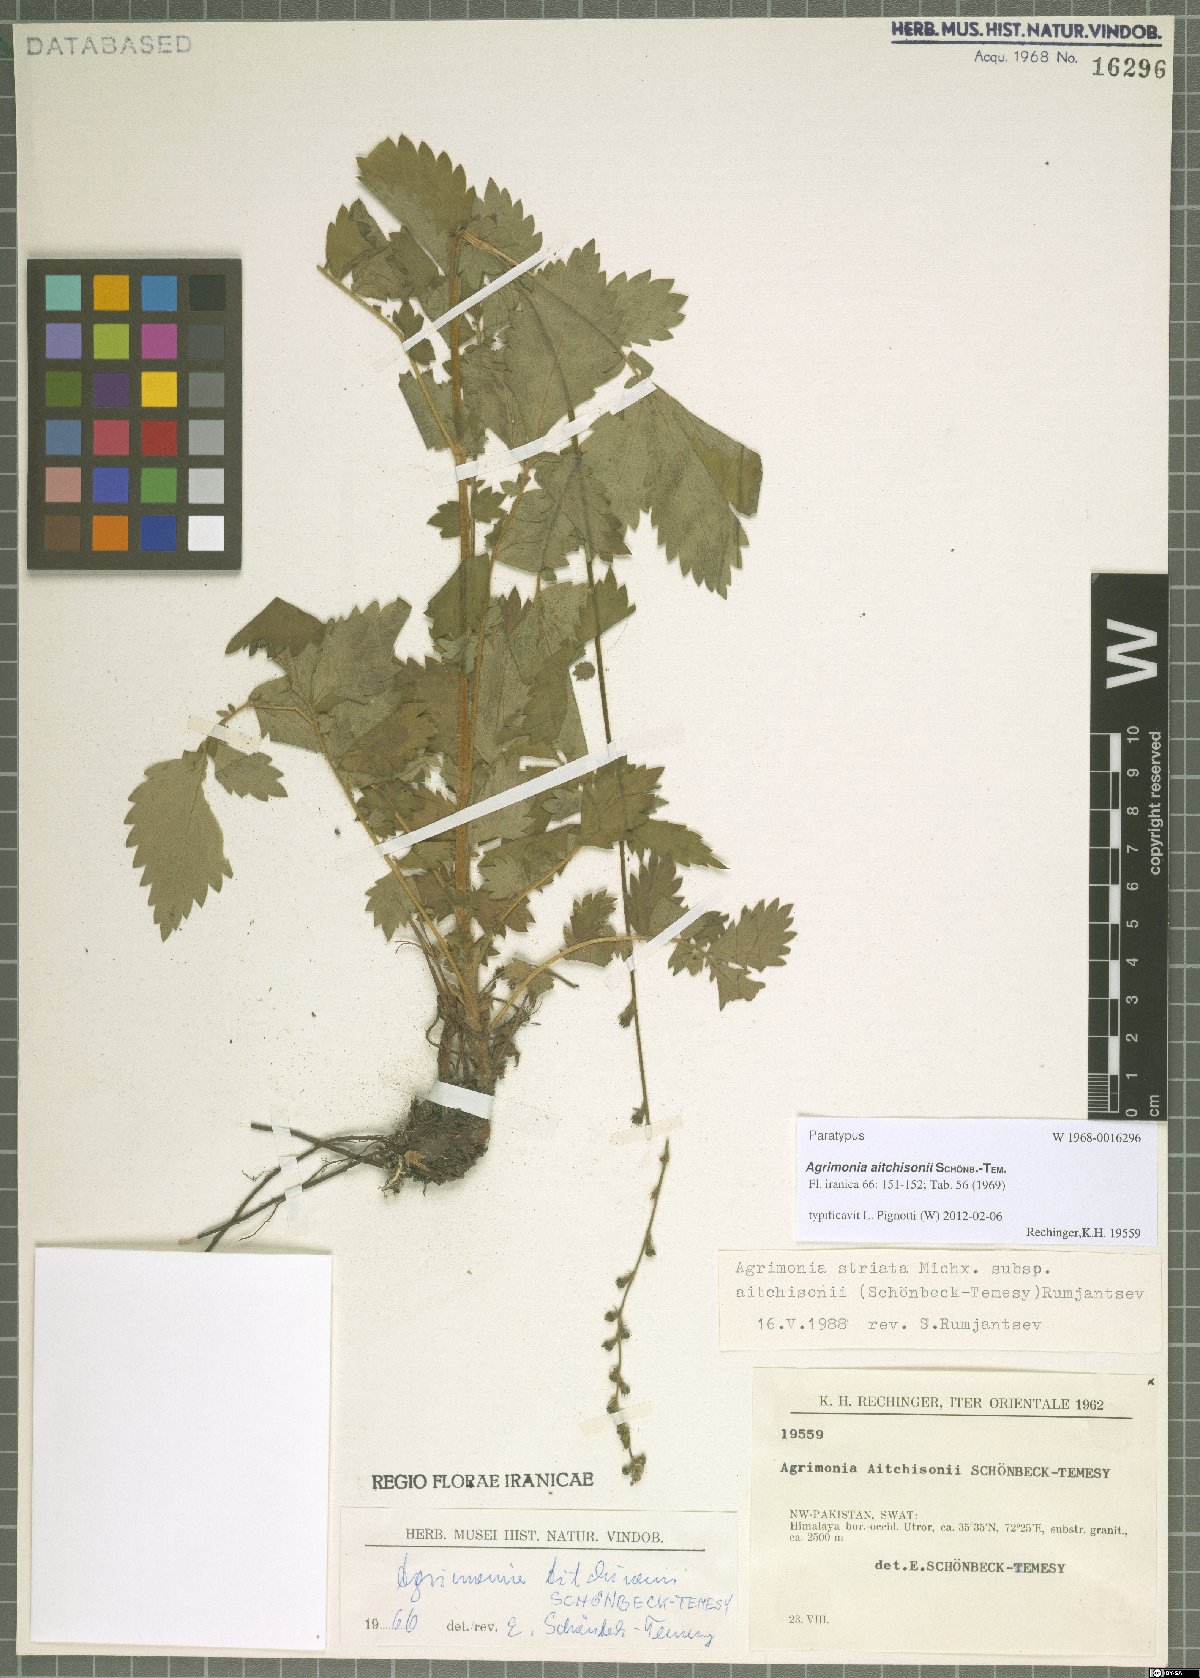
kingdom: Plantae
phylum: Tracheophyta
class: Magnoliopsida
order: Rosales
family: Rosaceae
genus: Agrimonia
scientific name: Agrimonia aitchisonii
